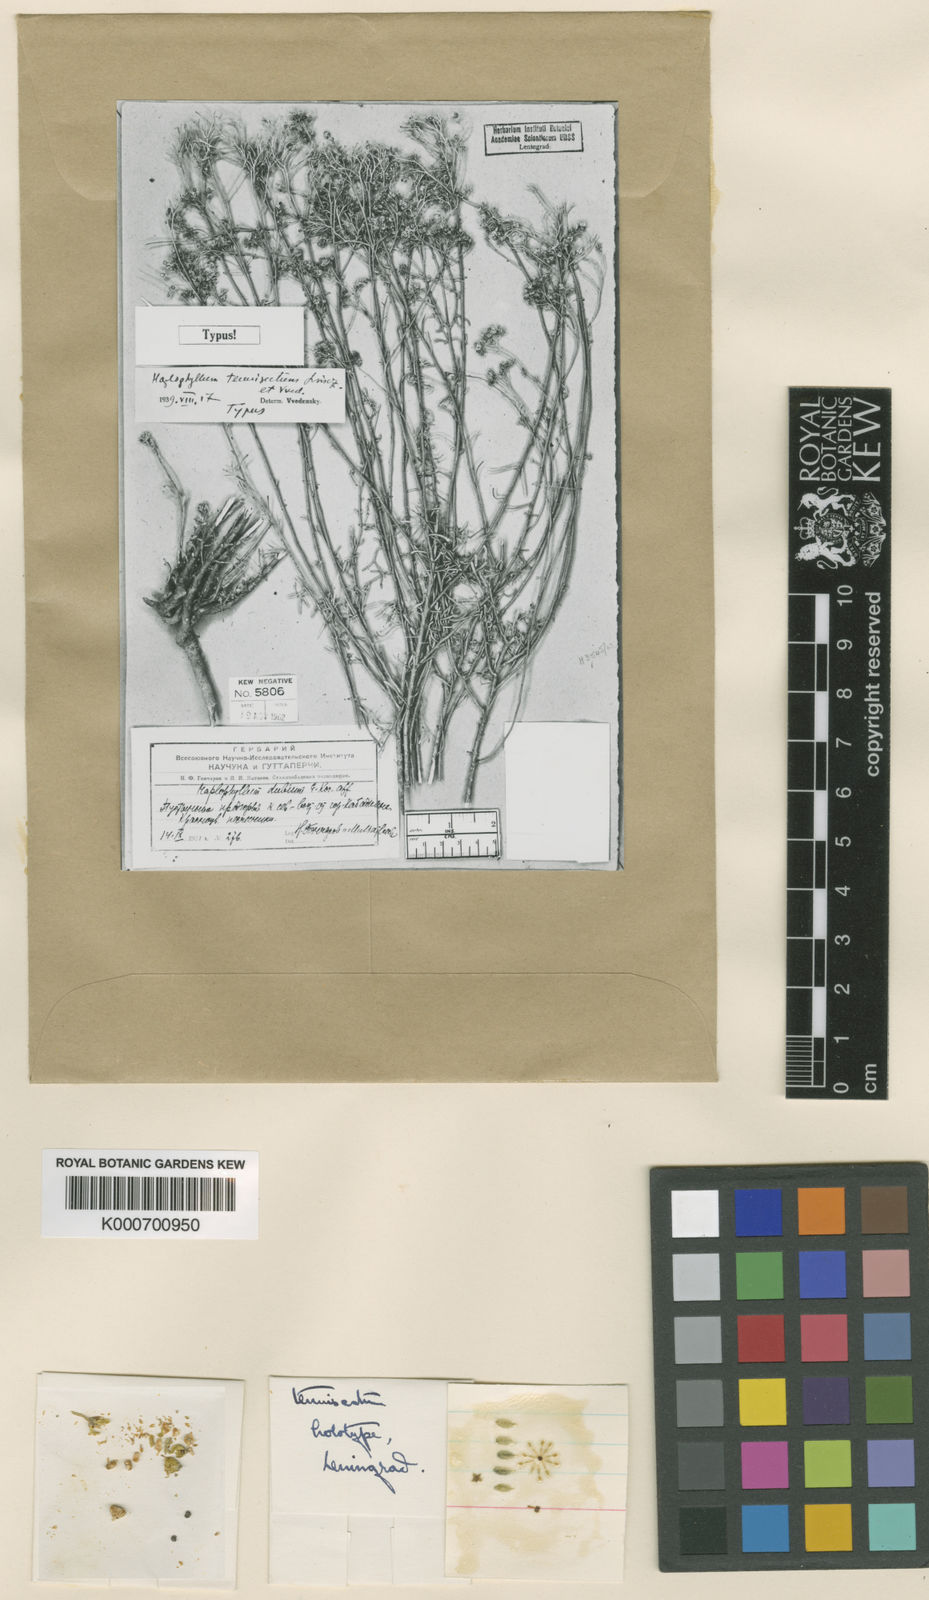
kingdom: Plantae
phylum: Tracheophyta
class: Magnoliopsida
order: Sapindales
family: Rutaceae
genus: Haplophyllum
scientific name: Haplophyllum griffithianum
